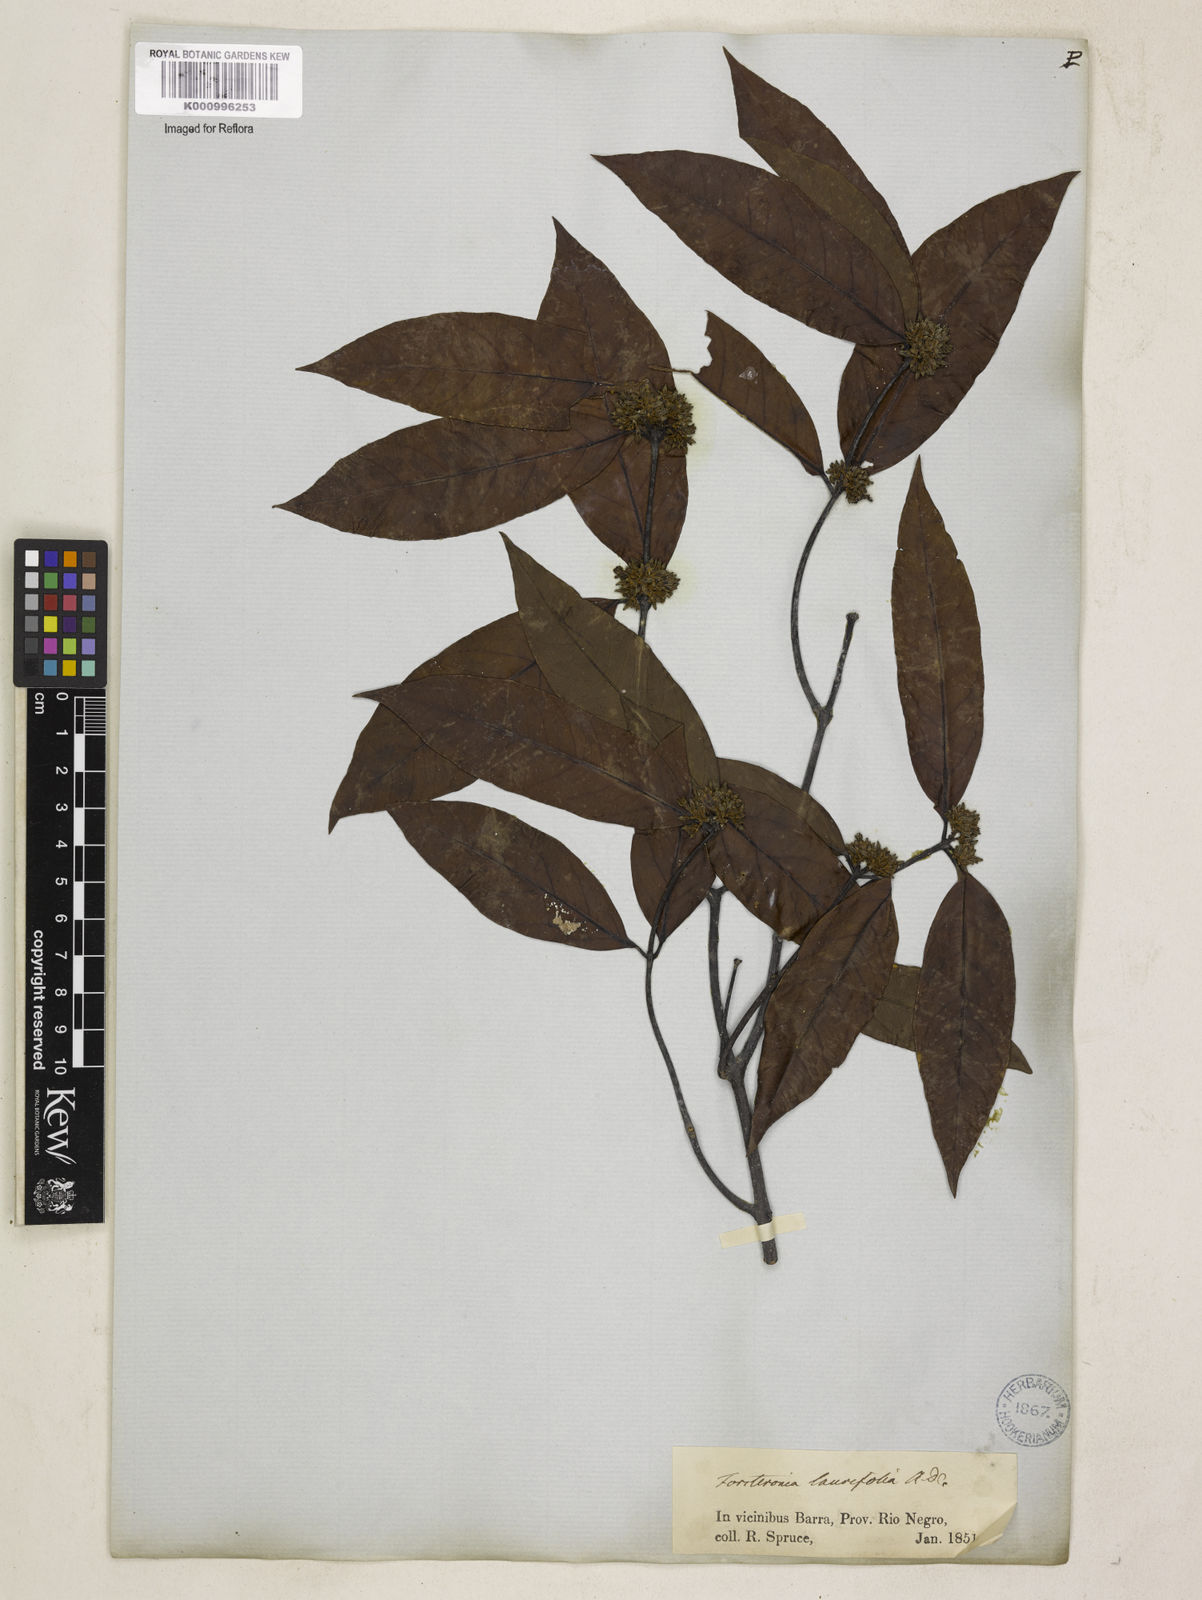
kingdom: Plantae
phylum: Tracheophyta
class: Magnoliopsida
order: Gentianales
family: Apocynaceae
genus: Forsteronia
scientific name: Forsteronia laurifolia
